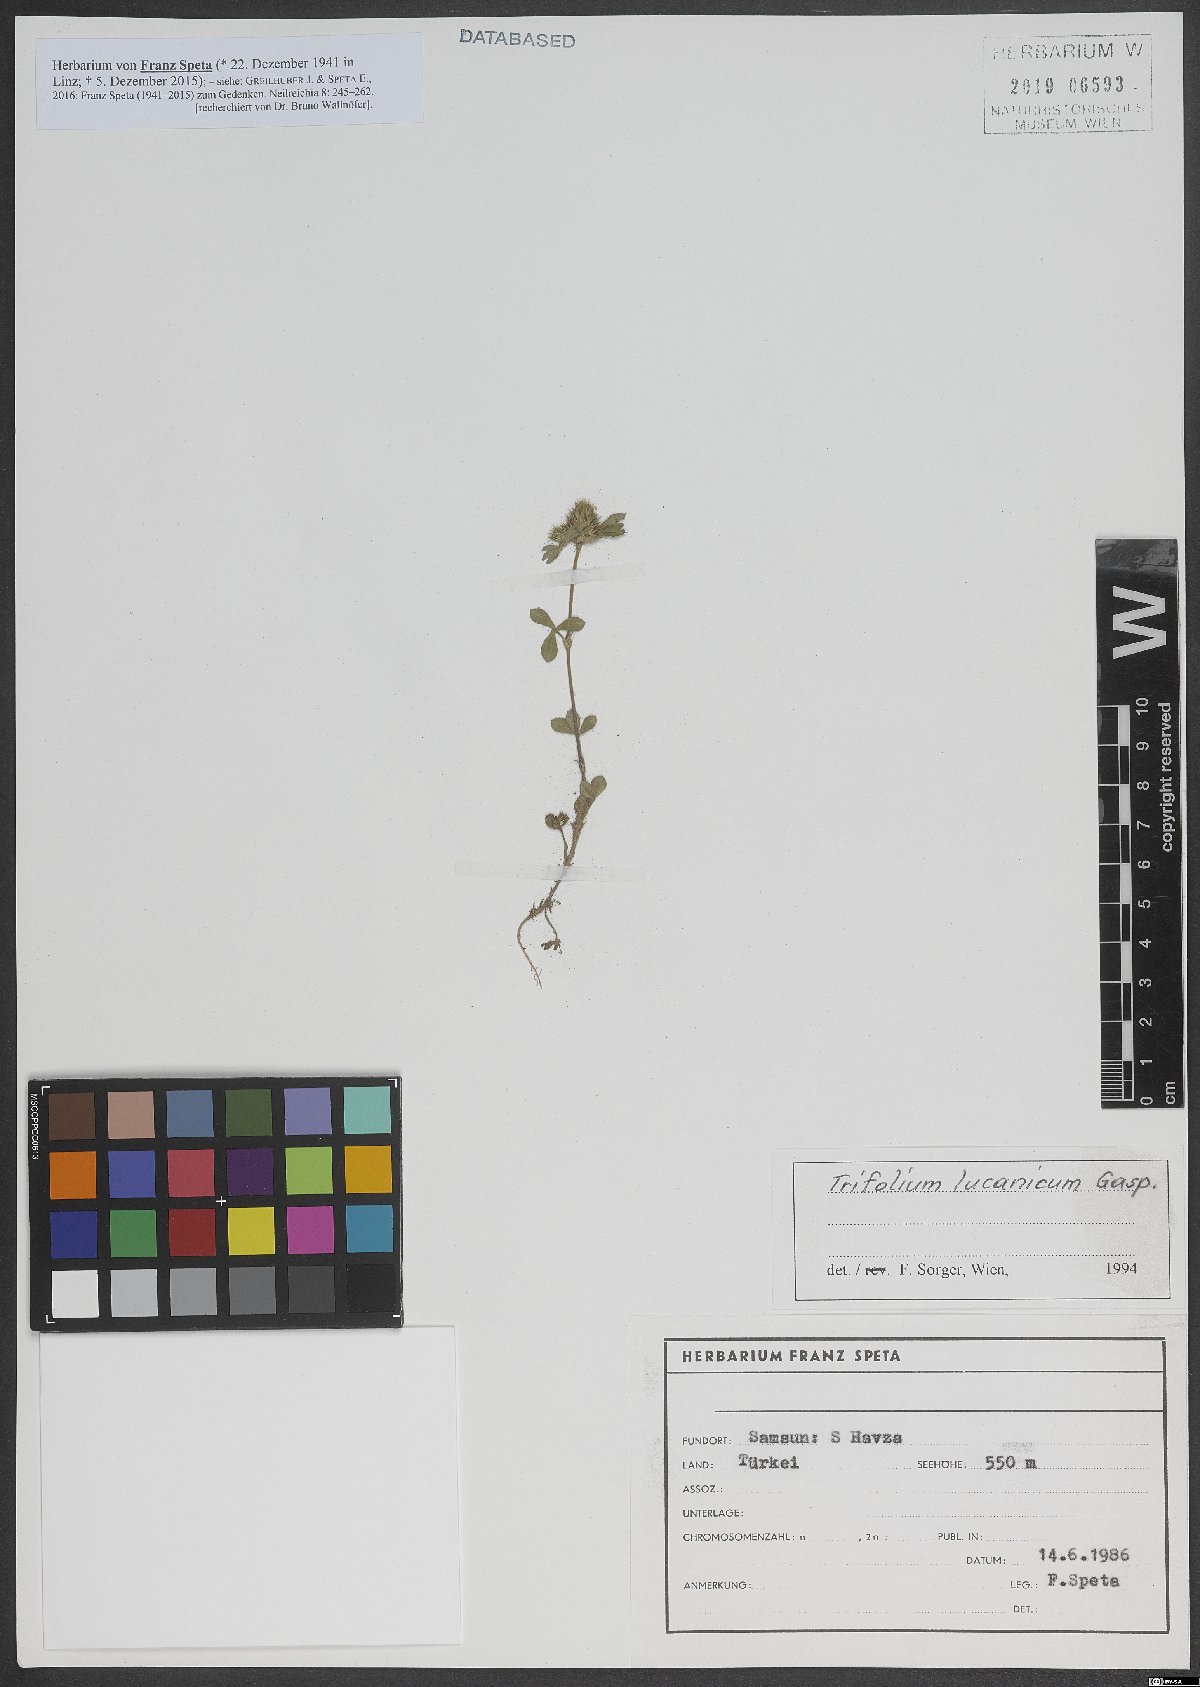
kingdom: Plantae
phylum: Tracheophyta
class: Magnoliopsida
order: Fabales
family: Fabaceae
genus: Trifolium
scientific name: Trifolium lucanicum
